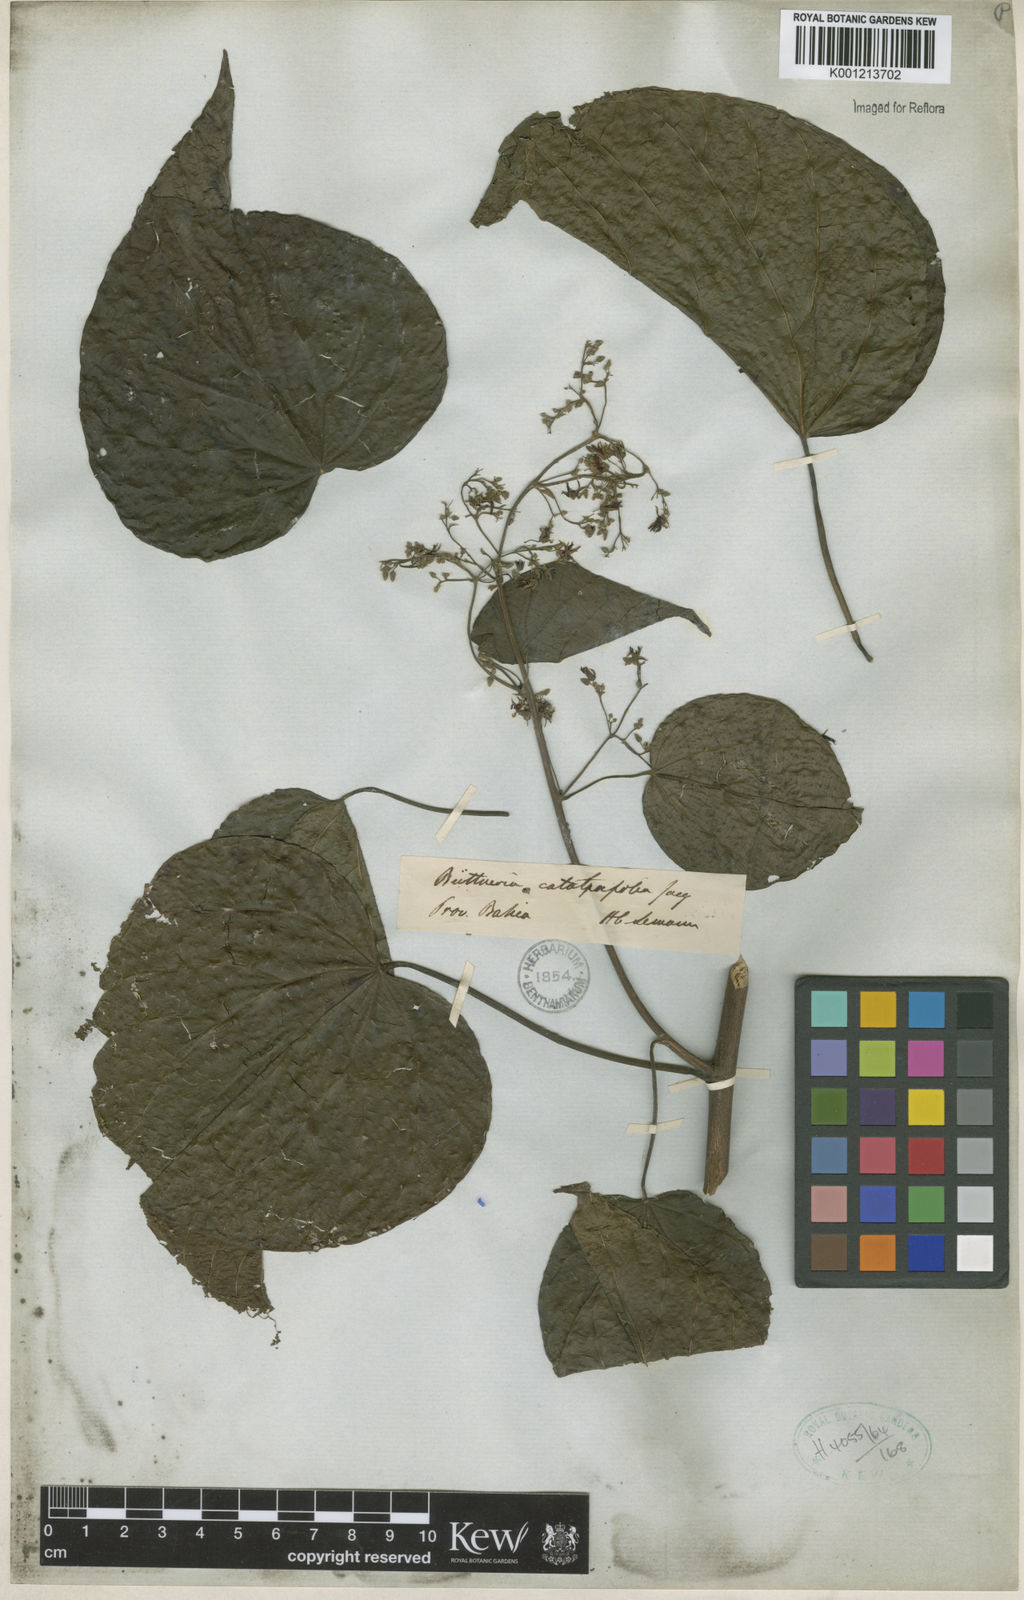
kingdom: Plantae
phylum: Tracheophyta
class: Magnoliopsida
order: Malvales
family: Malvaceae
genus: Byttneria
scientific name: Byttneria catalpifolia
